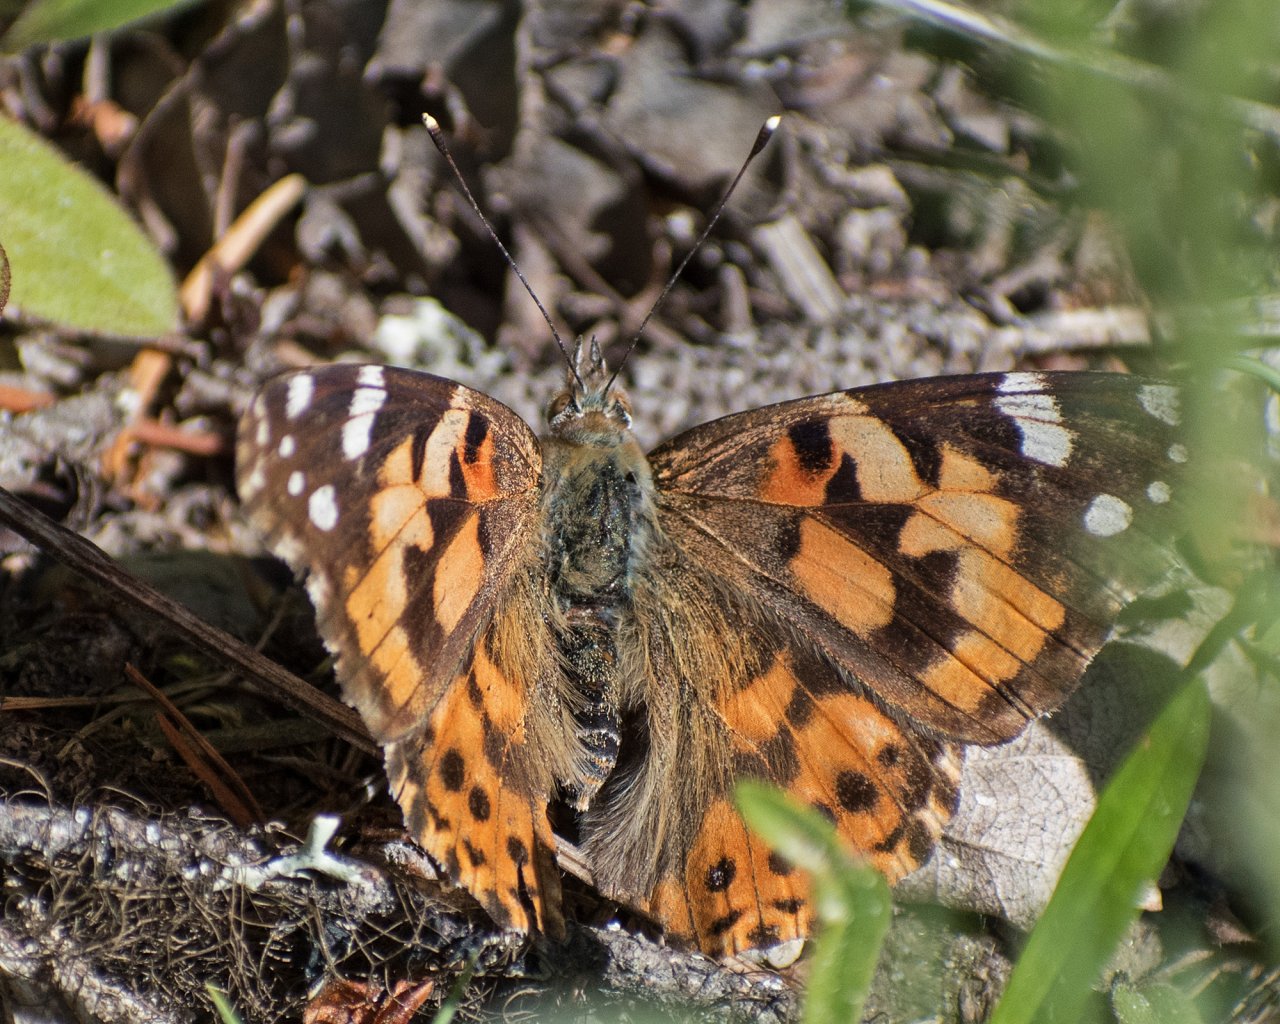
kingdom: Animalia
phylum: Arthropoda
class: Insecta
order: Lepidoptera
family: Nymphalidae
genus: Vanessa
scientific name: Vanessa cardui
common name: Painted Lady
